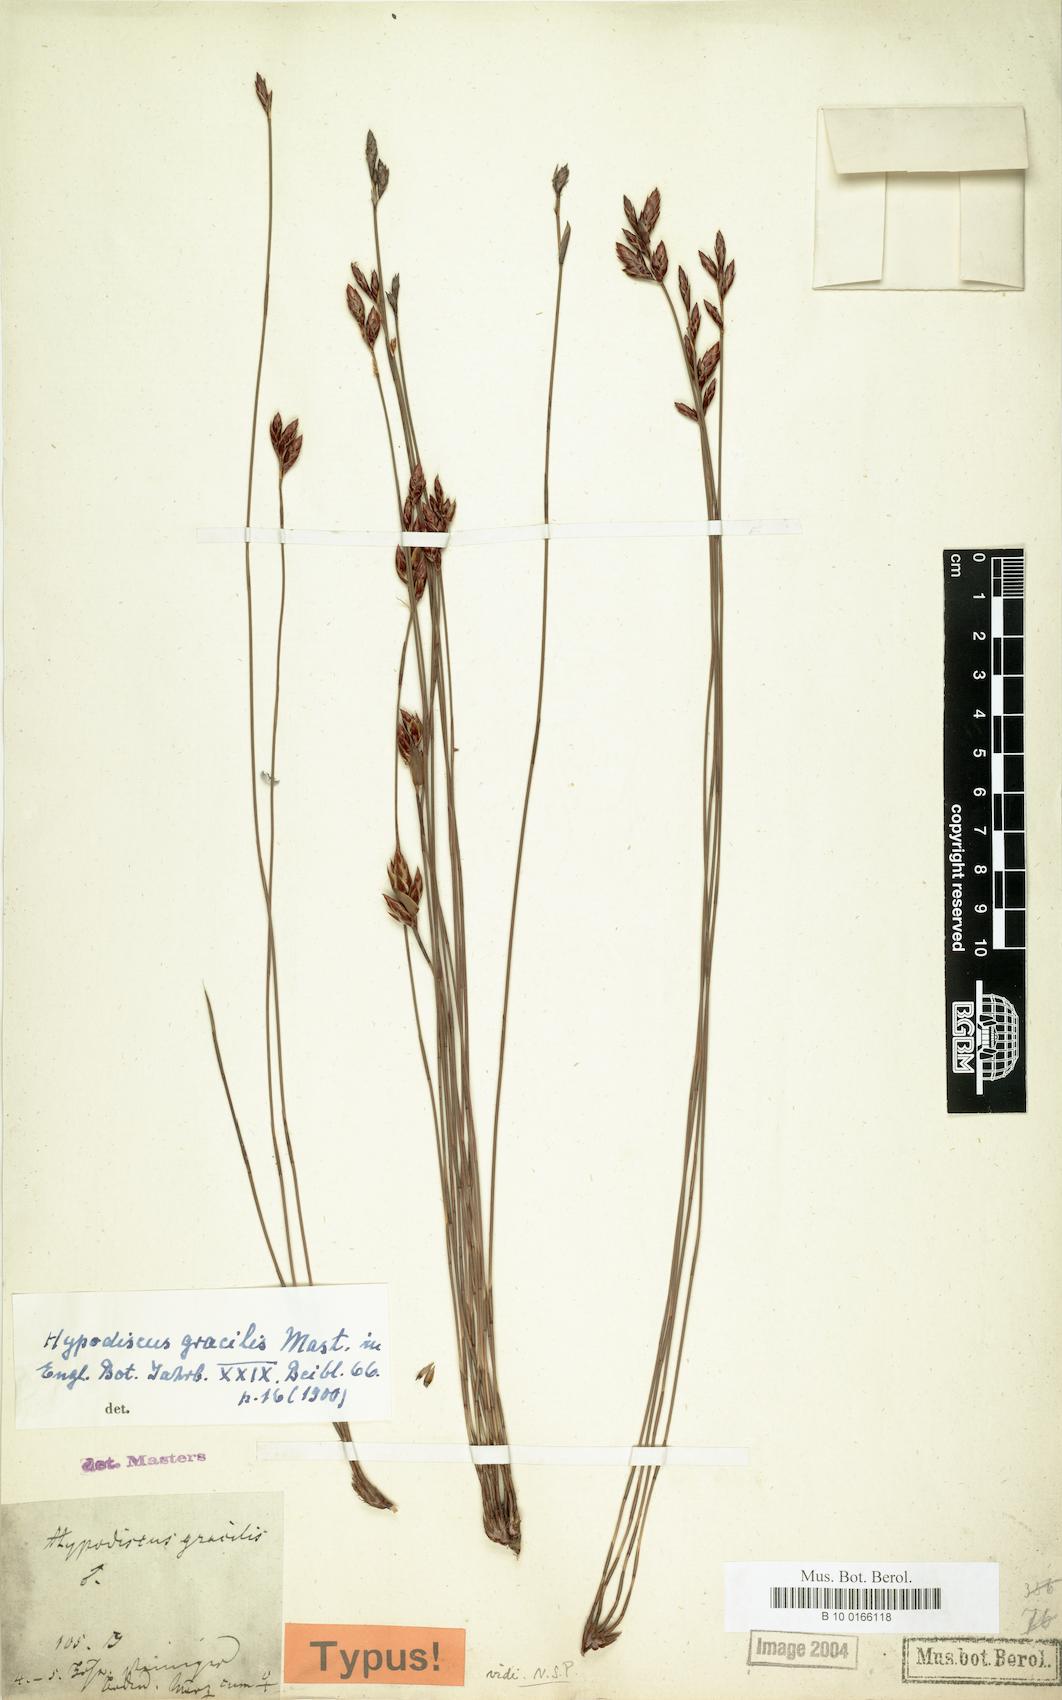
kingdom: Plantae
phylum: Tracheophyta
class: Liliopsida
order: Poales
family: Restionaceae
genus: Hypodiscus
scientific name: Hypodiscus striatus
